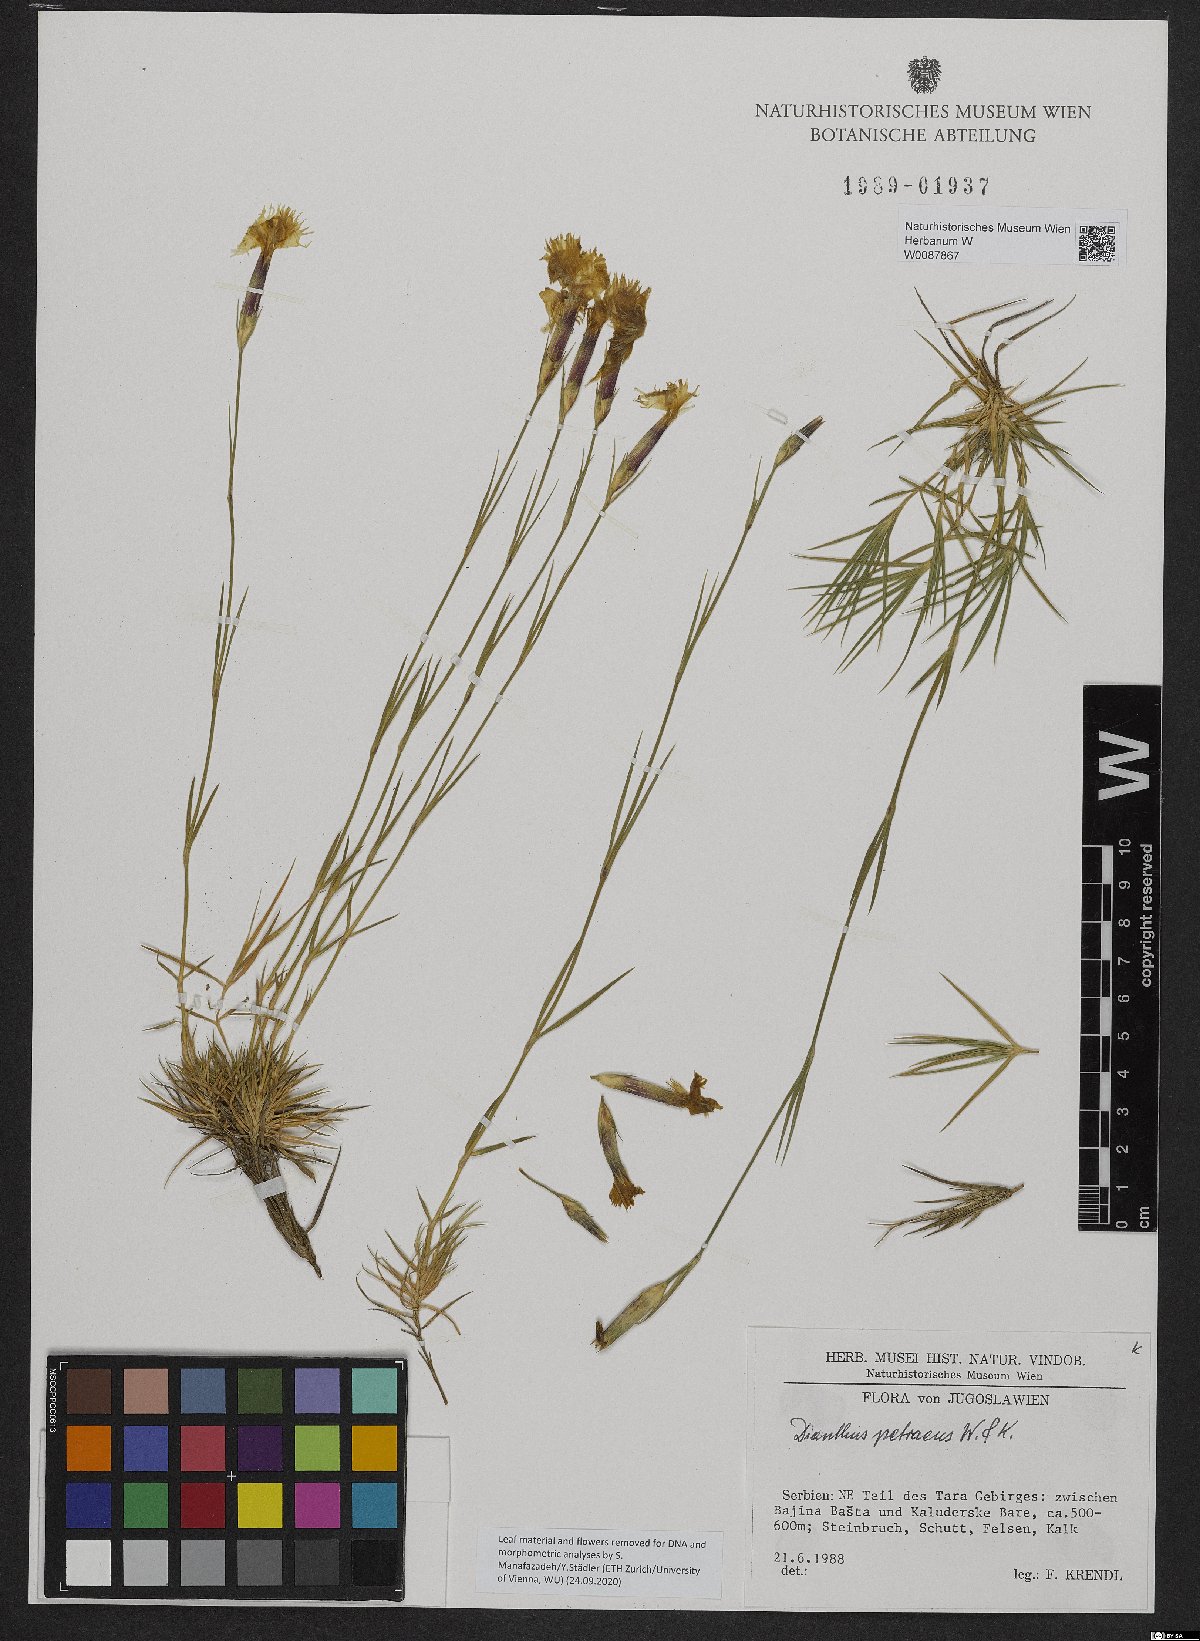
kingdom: Plantae
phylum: Tracheophyta
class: Magnoliopsida
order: Caryophyllales
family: Caryophyllaceae
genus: Dianthus
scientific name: Dianthus petraeus
